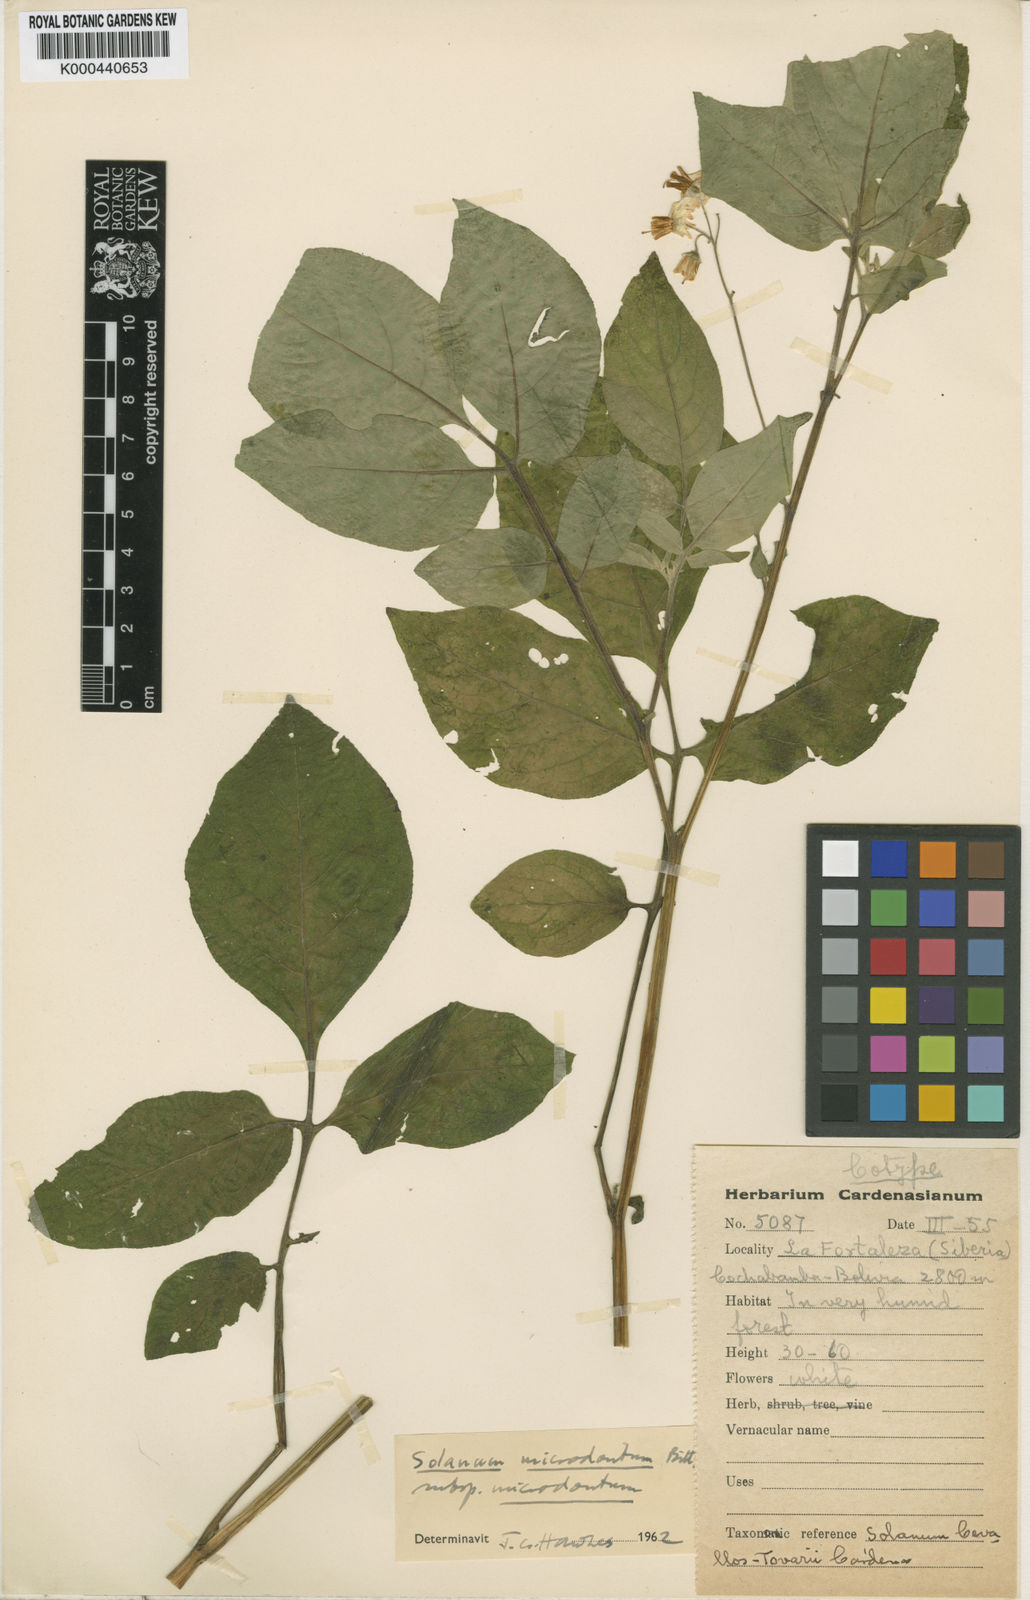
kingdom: Plantae
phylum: Tracheophyta
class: Magnoliopsida
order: Solanales
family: Solanaceae
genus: Solanum
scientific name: Solanum microdontum
